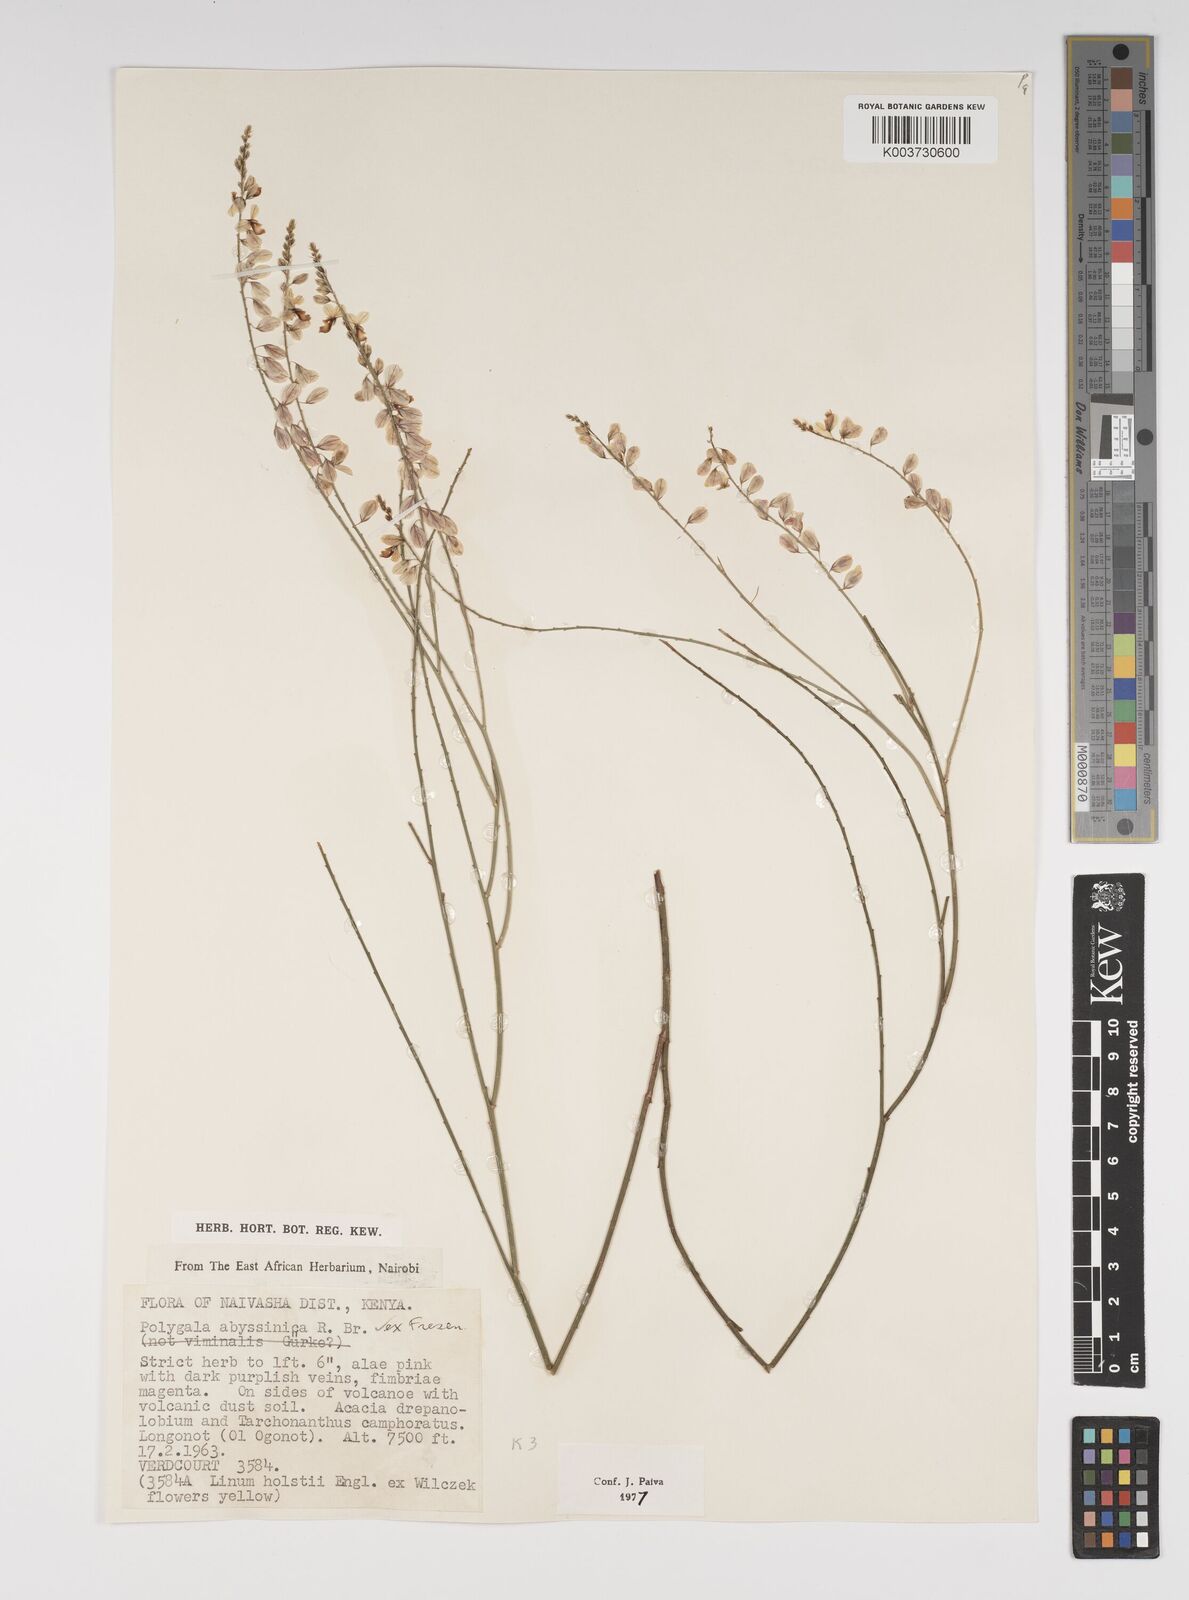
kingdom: Plantae
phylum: Tracheophyta
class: Magnoliopsida
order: Fabales
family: Polygalaceae
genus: Polygala
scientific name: Polygala abyssinica
